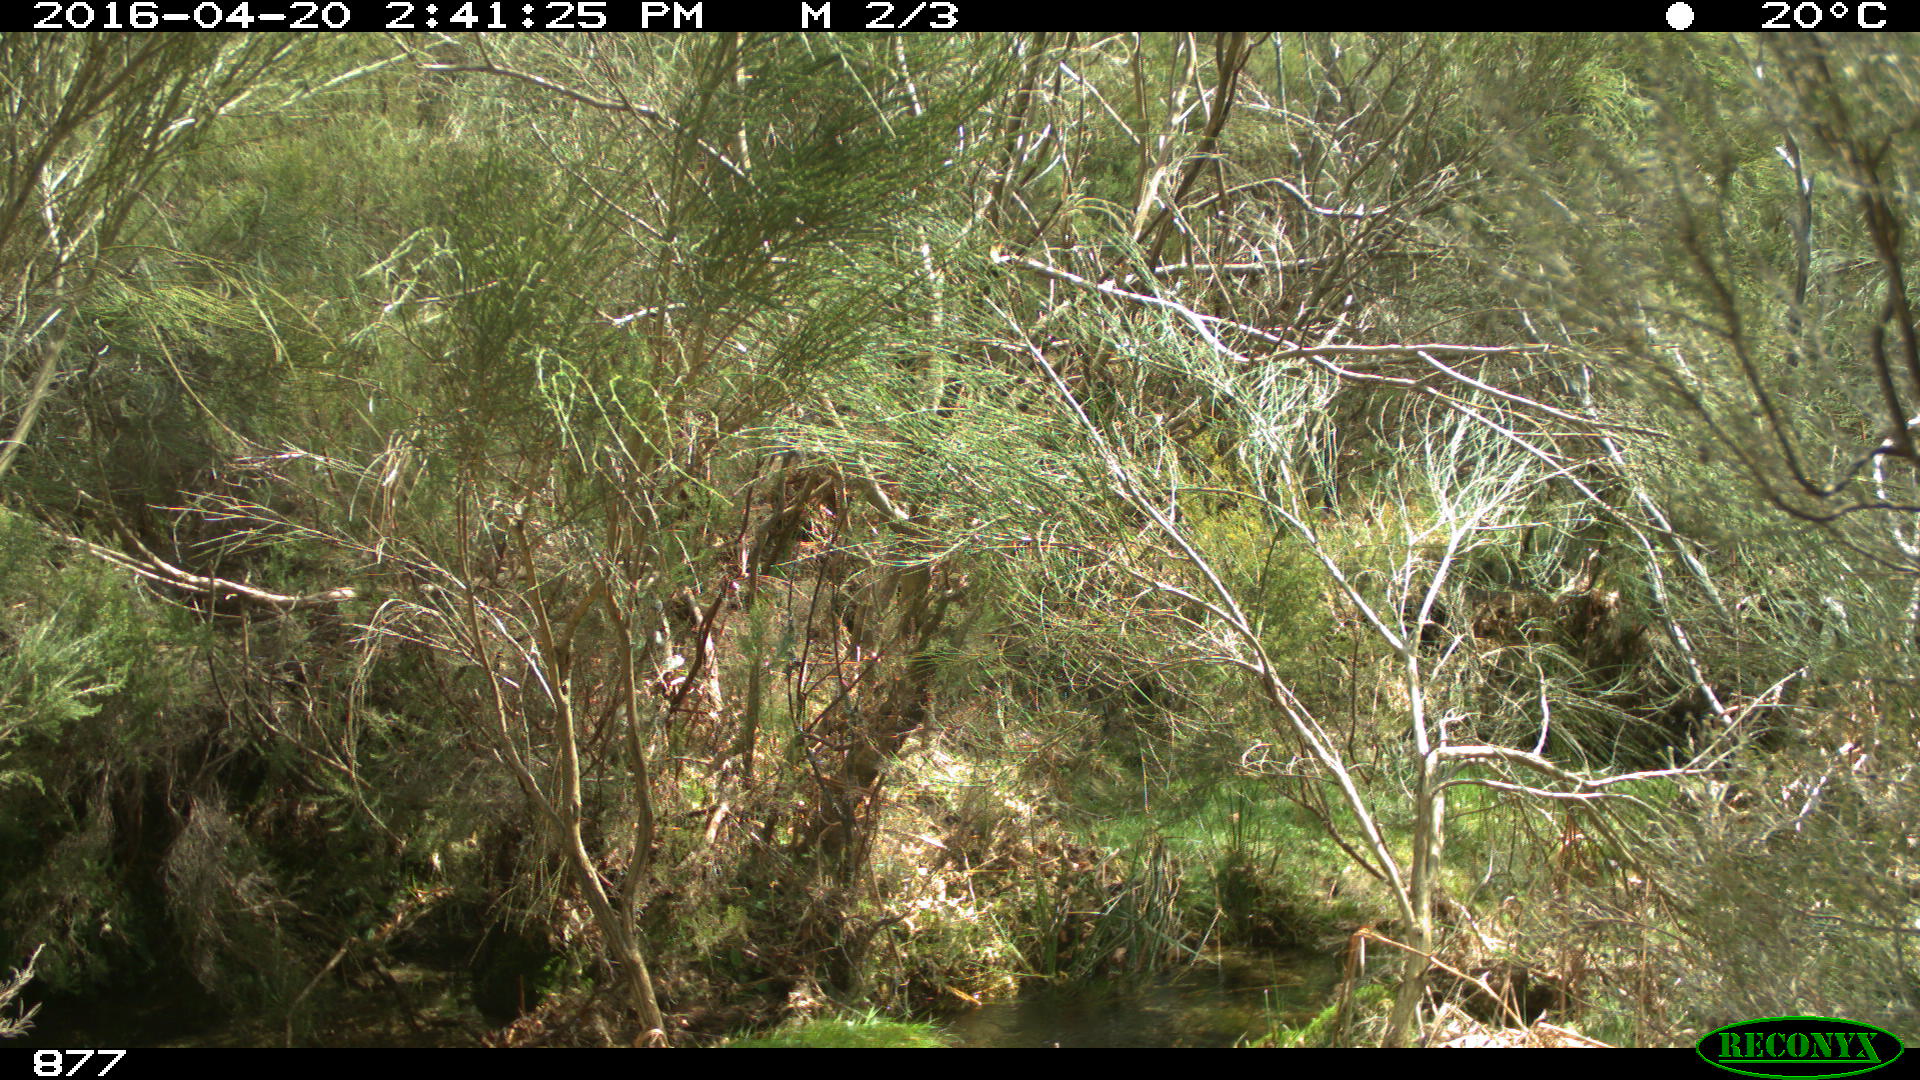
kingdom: Animalia
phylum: Chordata
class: Mammalia
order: Artiodactyla
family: Cervidae
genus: Capreolus
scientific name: Capreolus capreolus
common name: Western roe deer
